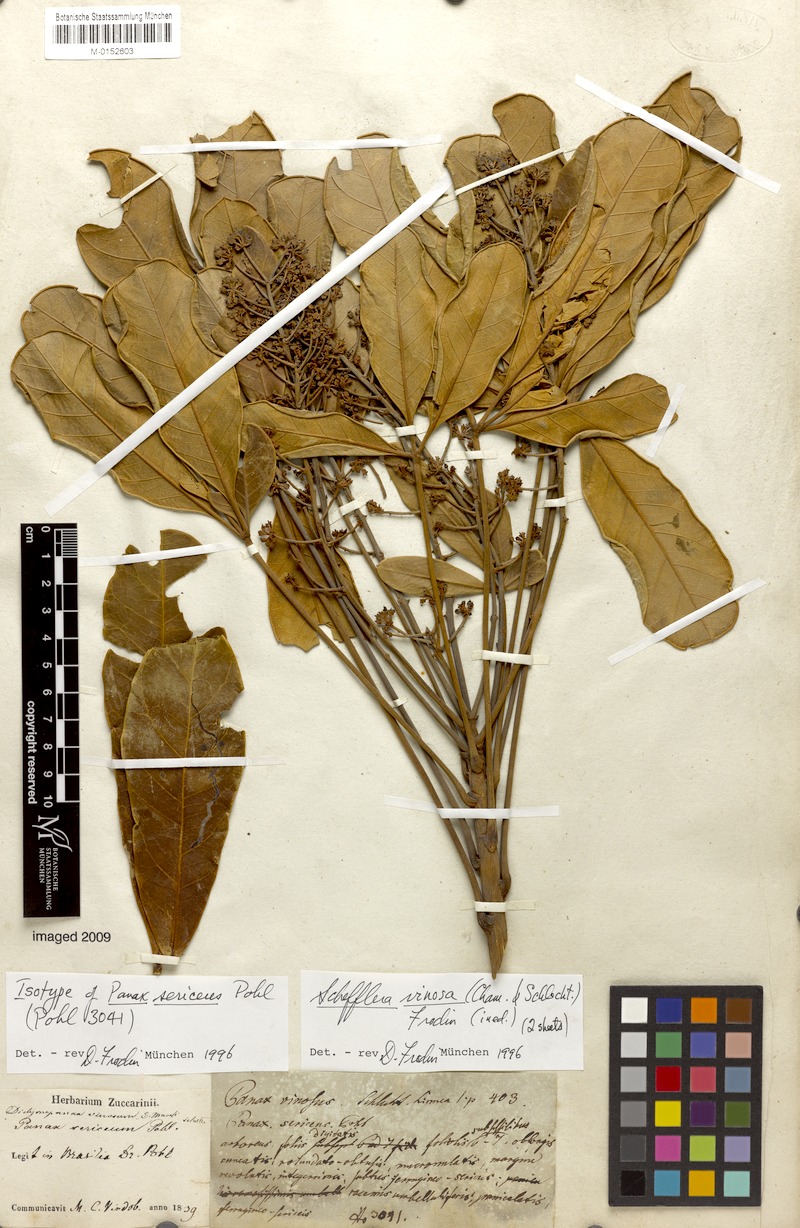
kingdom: Plantae
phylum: Tracheophyta
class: Magnoliopsida
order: Apiales
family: Araliaceae
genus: Didymopanax
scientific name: Didymopanax vinosus
